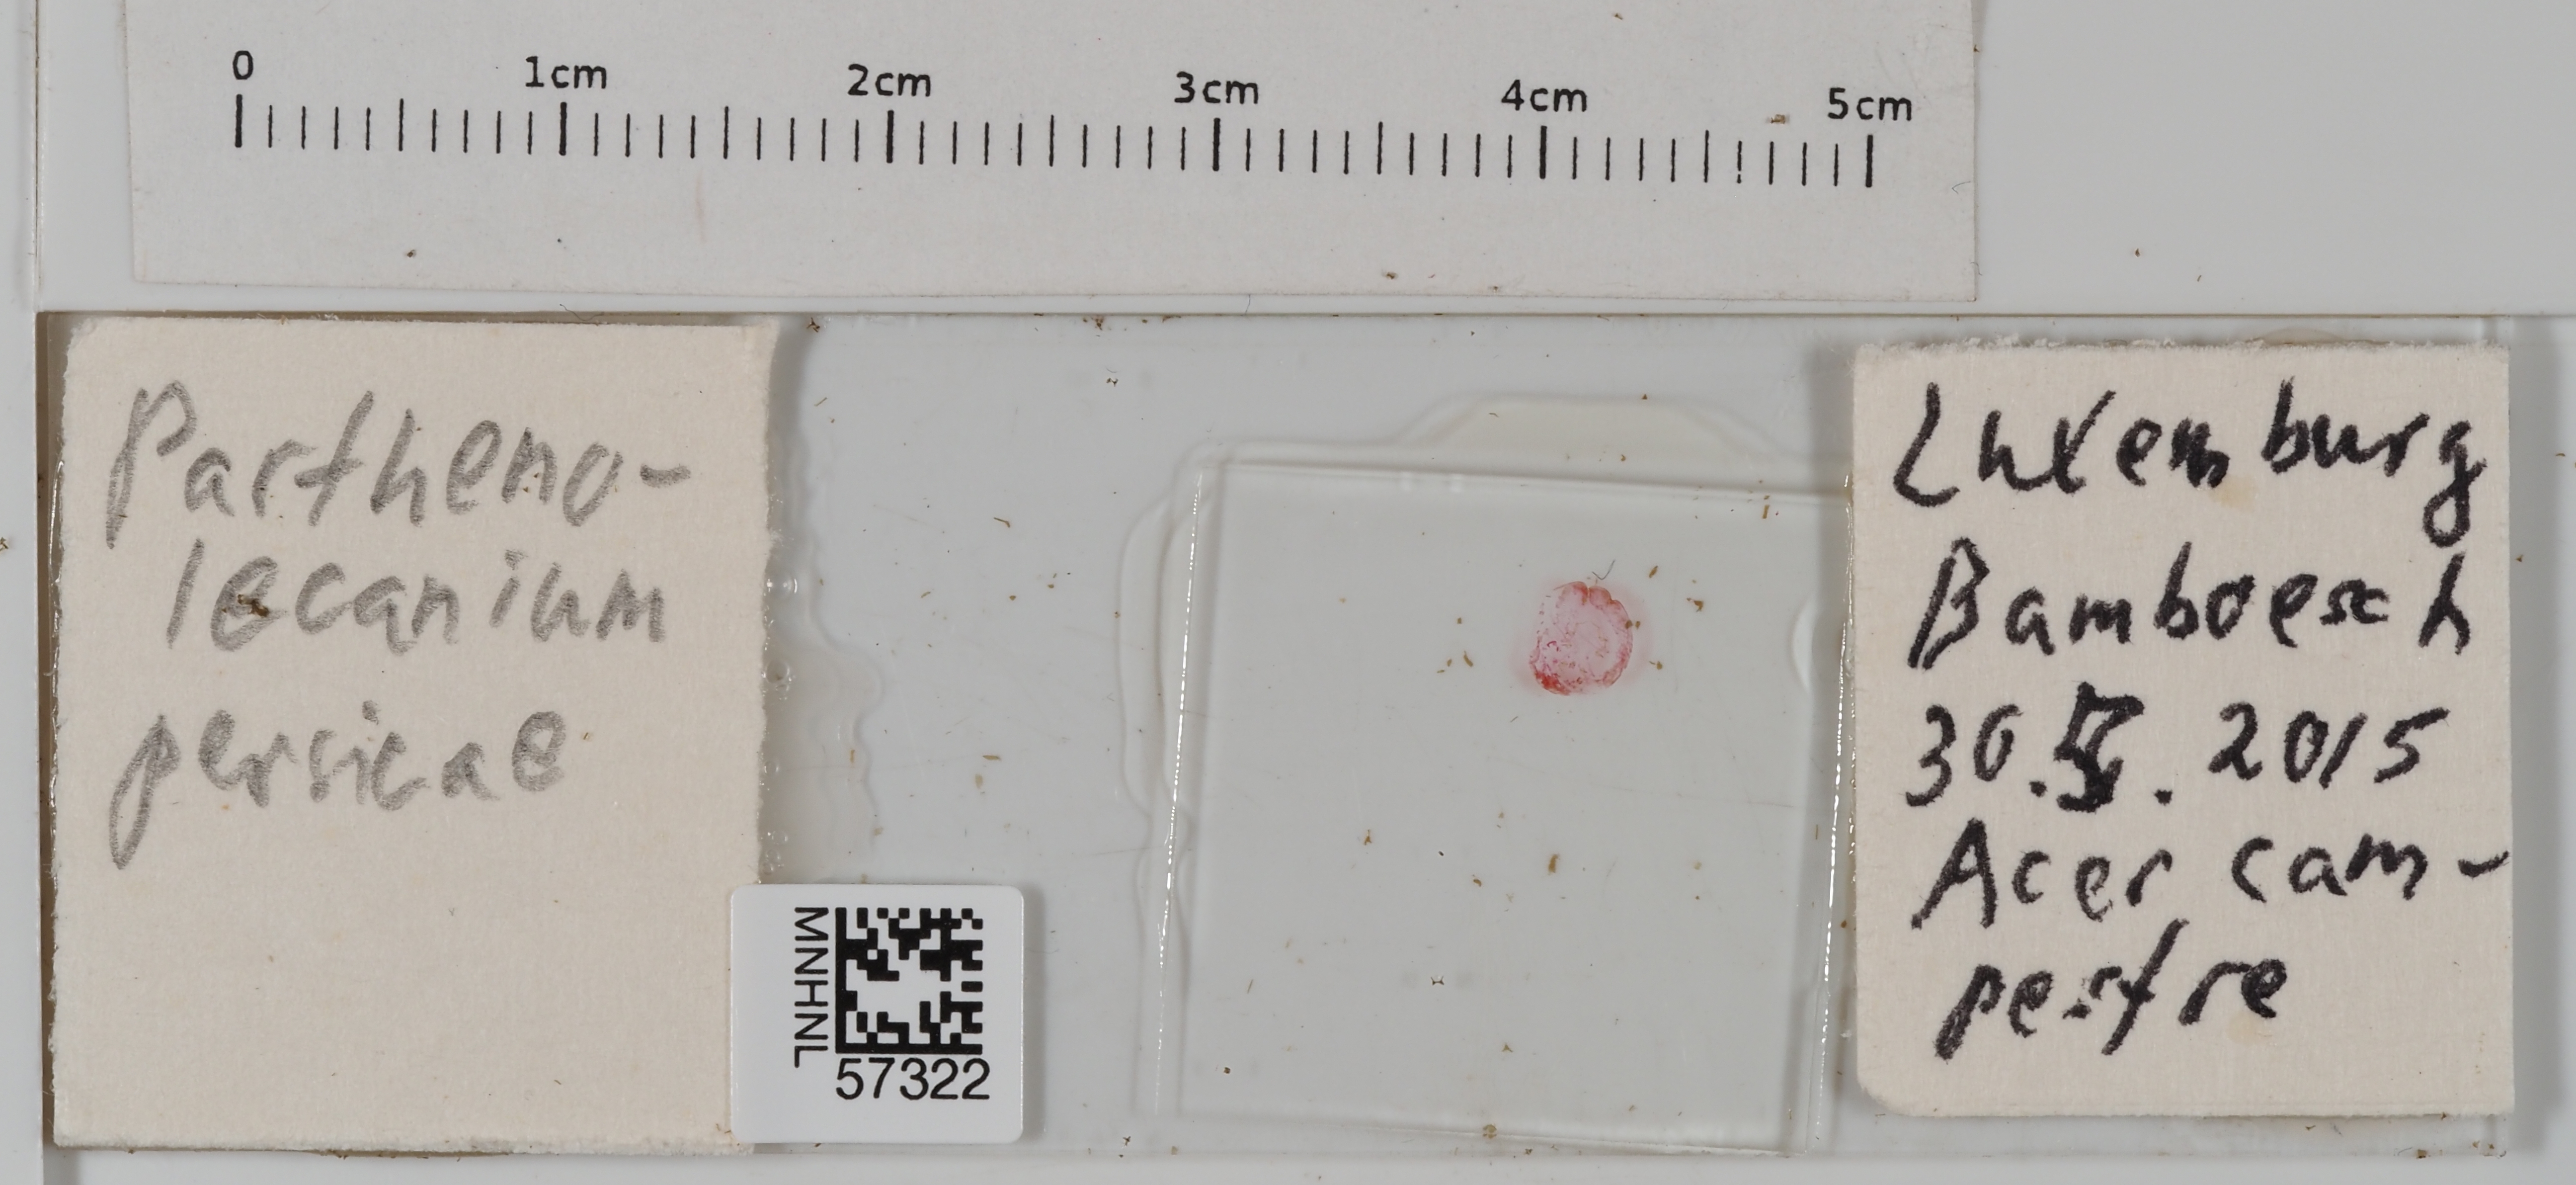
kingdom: Animalia
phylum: Arthropoda
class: Insecta
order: Hemiptera
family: Coccidae
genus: Parthenolecanium
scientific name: Parthenolecanium persicae
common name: Peach scale
